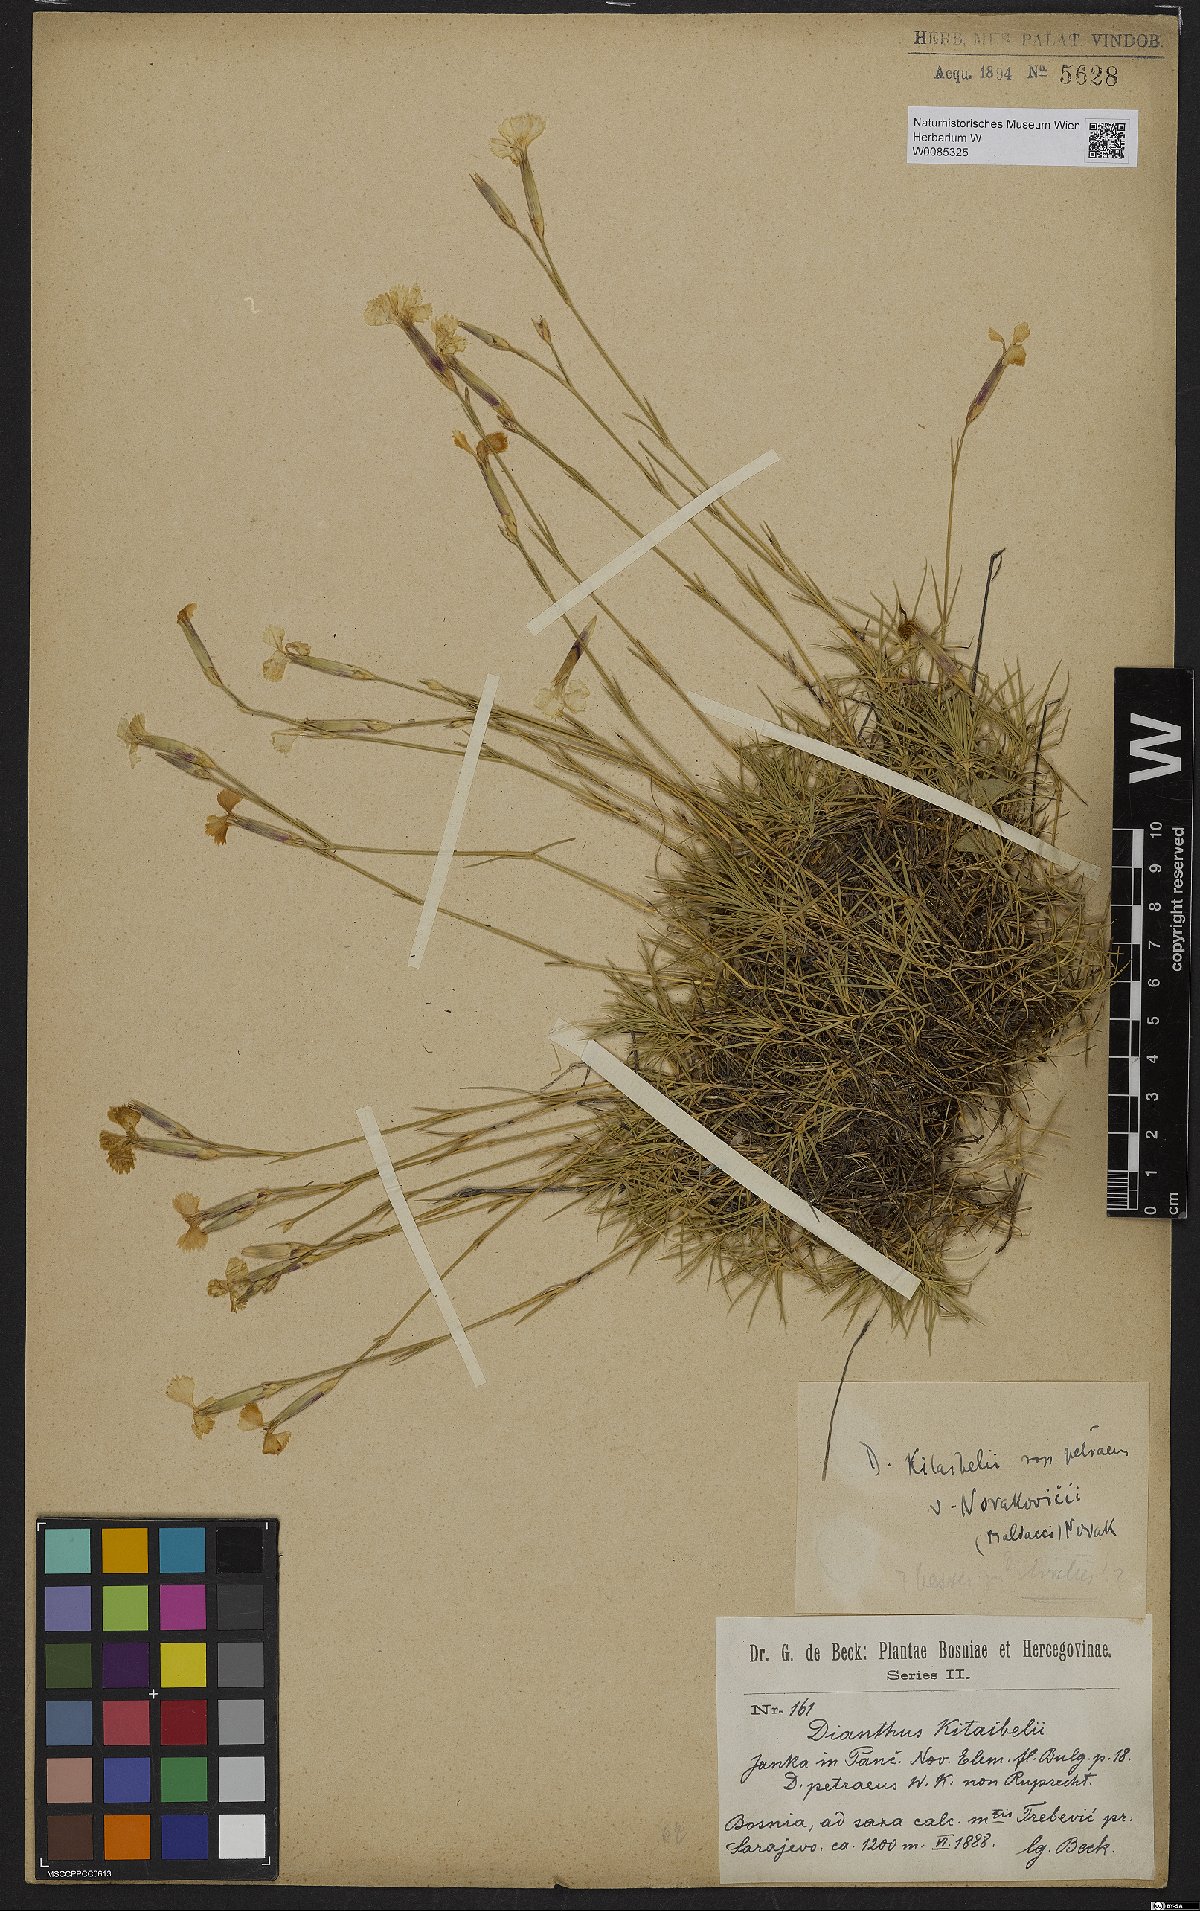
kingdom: Plantae
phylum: Tracheophyta
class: Magnoliopsida
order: Caryophyllales
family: Caryophyllaceae
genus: Dianthus
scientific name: Dianthus petraeus
